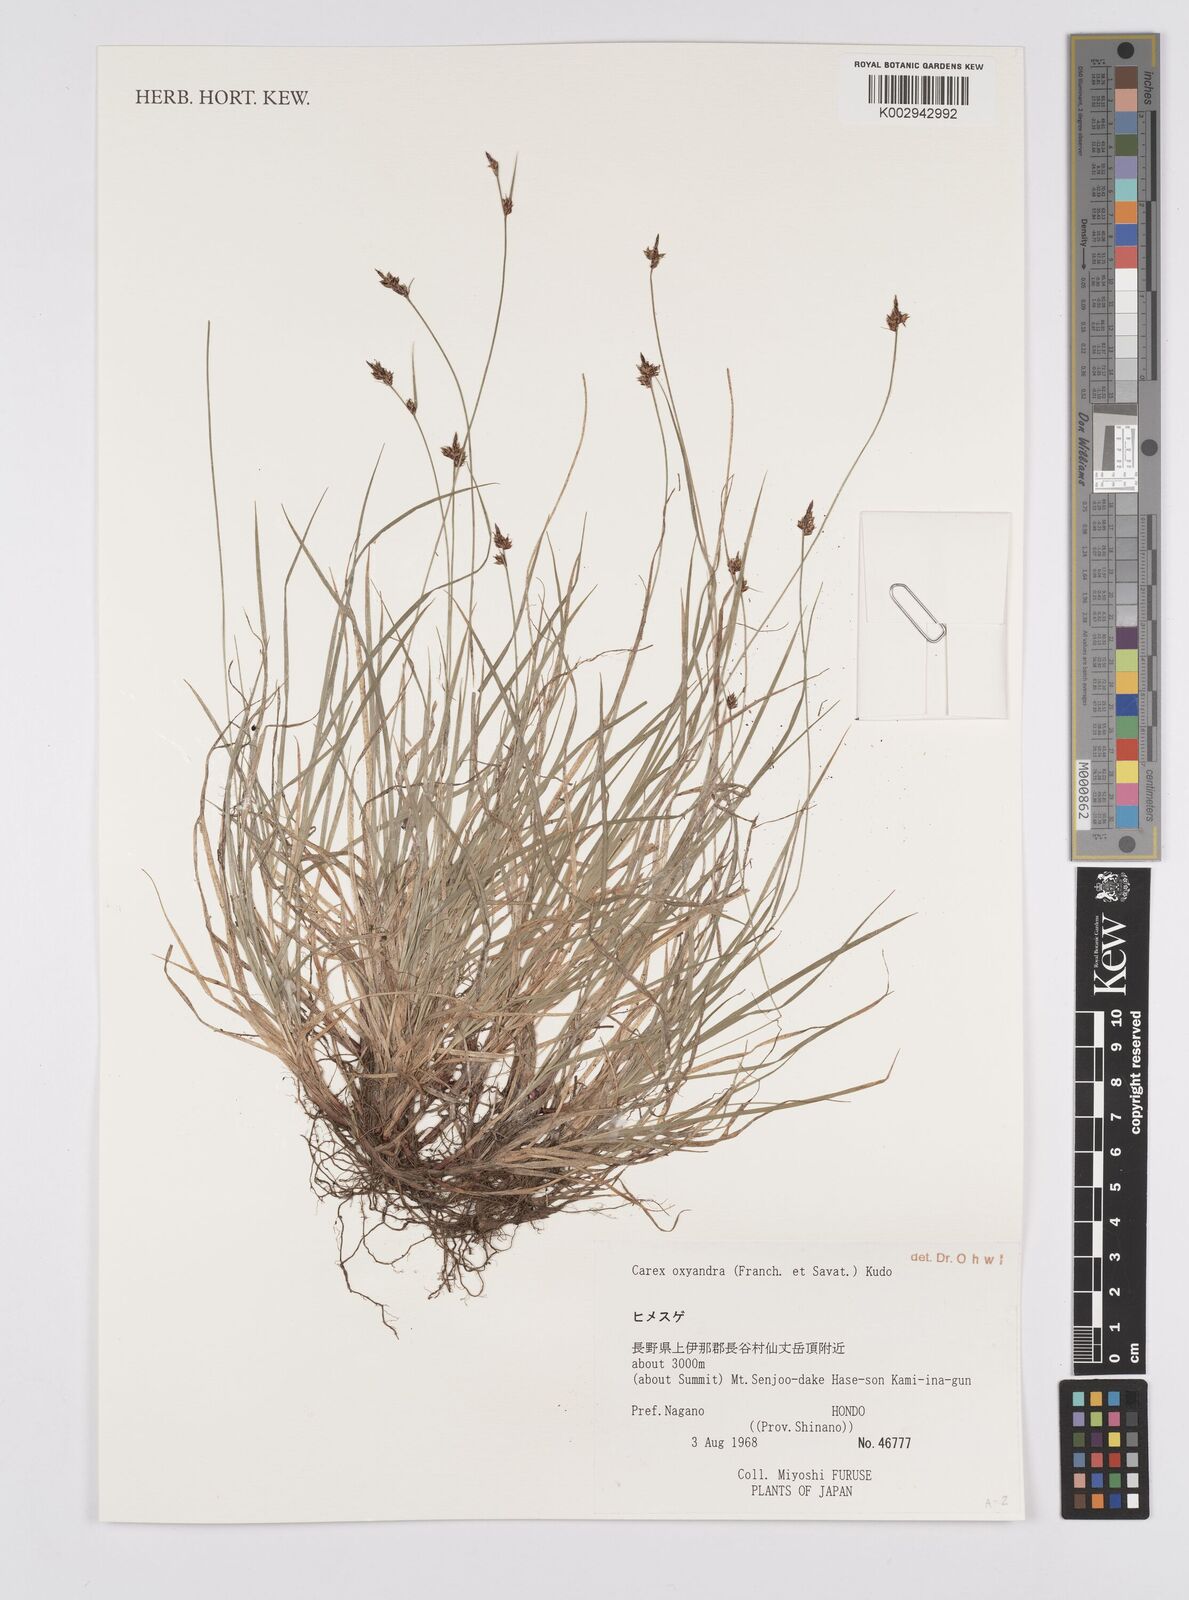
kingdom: Plantae
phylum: Tracheophyta
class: Liliopsida
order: Poales
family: Cyperaceae
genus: Carex
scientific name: Carex oxyandra
